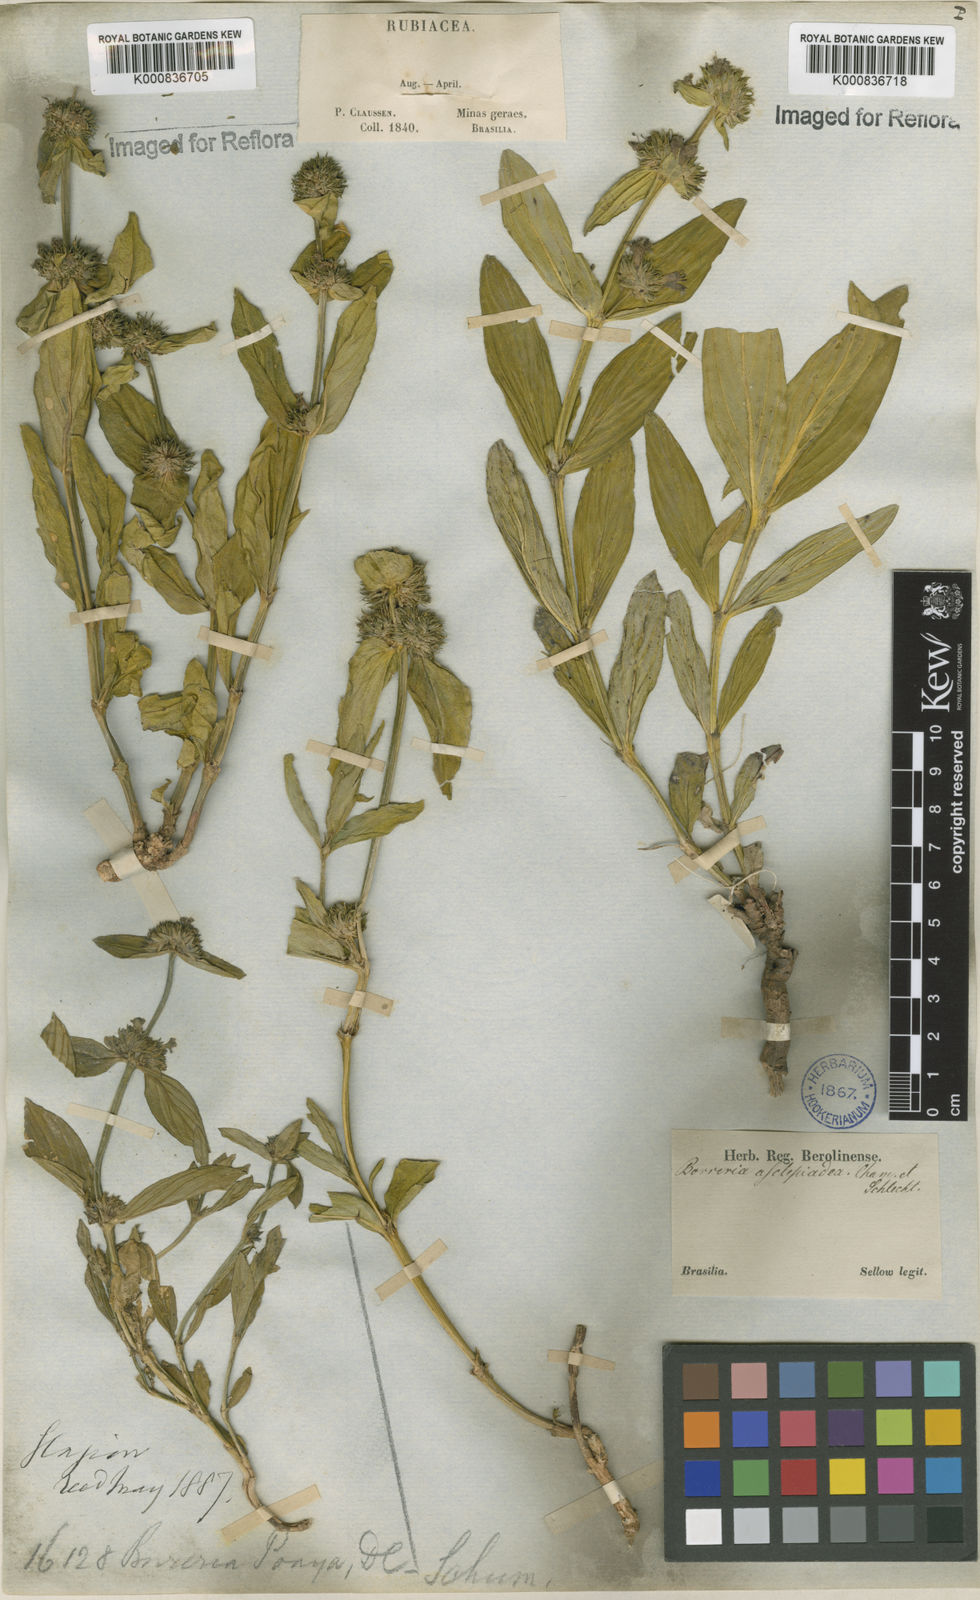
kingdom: Plantae
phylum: Tracheophyta
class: Magnoliopsida
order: Gentianales
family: Rubiaceae
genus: Spermacoce
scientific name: Spermacoce poaya
